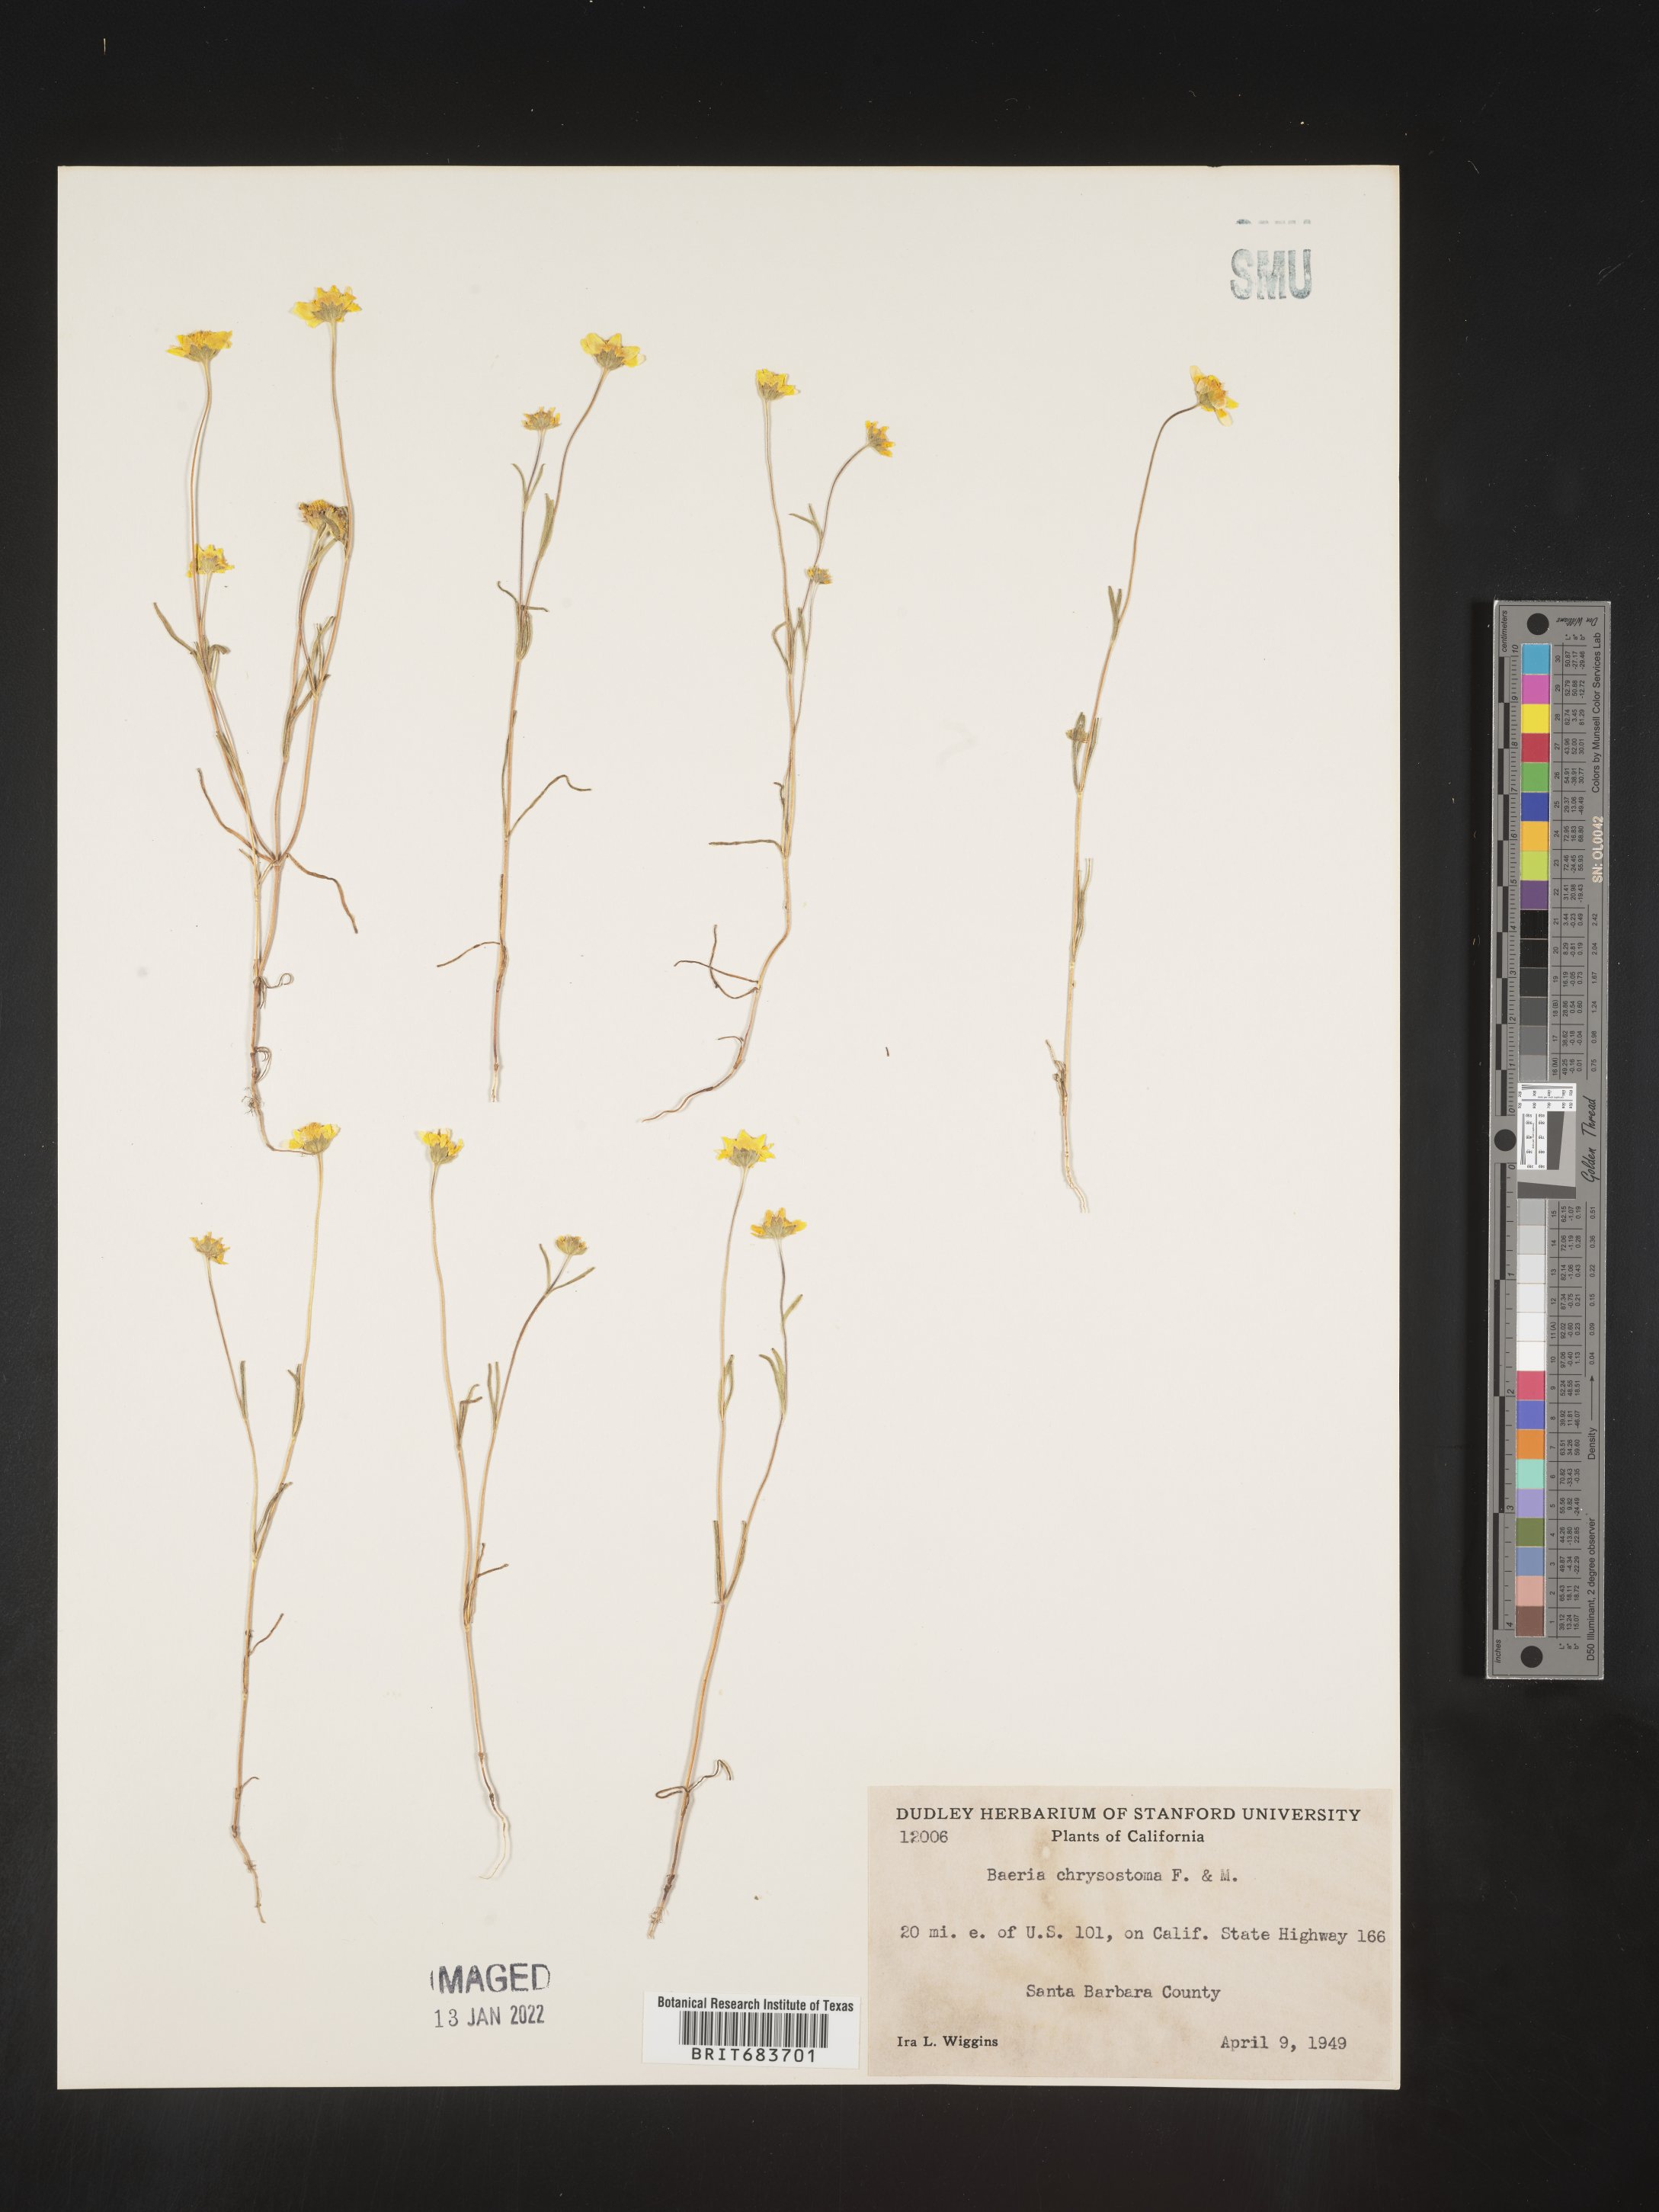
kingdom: Plantae
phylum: Tracheophyta
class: Magnoliopsida
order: Asterales
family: Asteraceae
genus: Lasthenia
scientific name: Lasthenia
